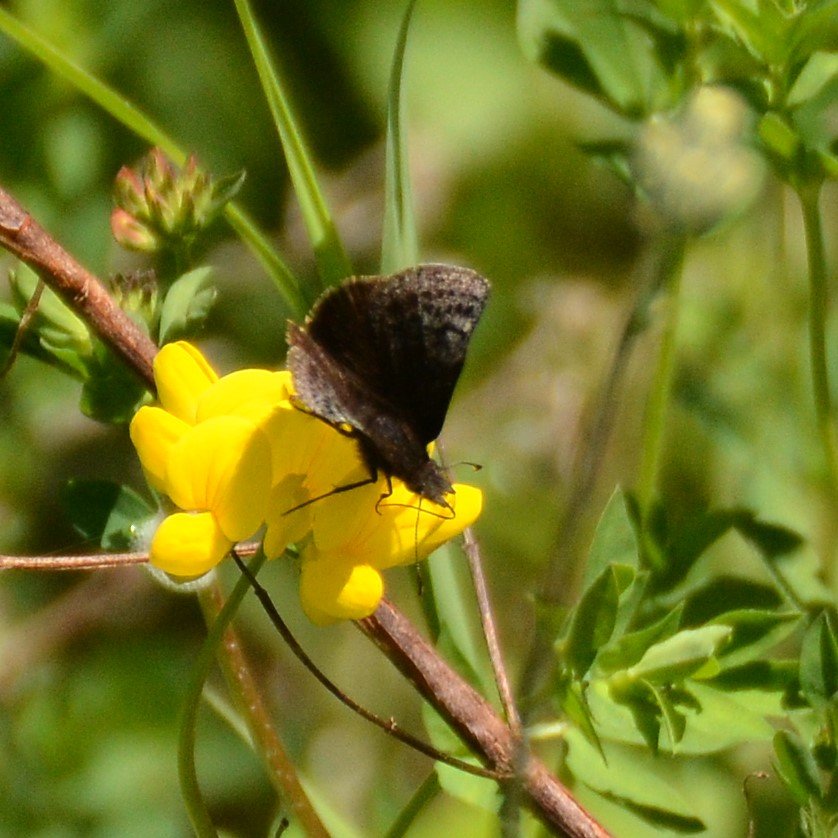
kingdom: Animalia
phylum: Arthropoda
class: Insecta
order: Lepidoptera
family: Hesperiidae
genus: Erynnis
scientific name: Erynnis icelus
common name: Dreamy Duskywing
